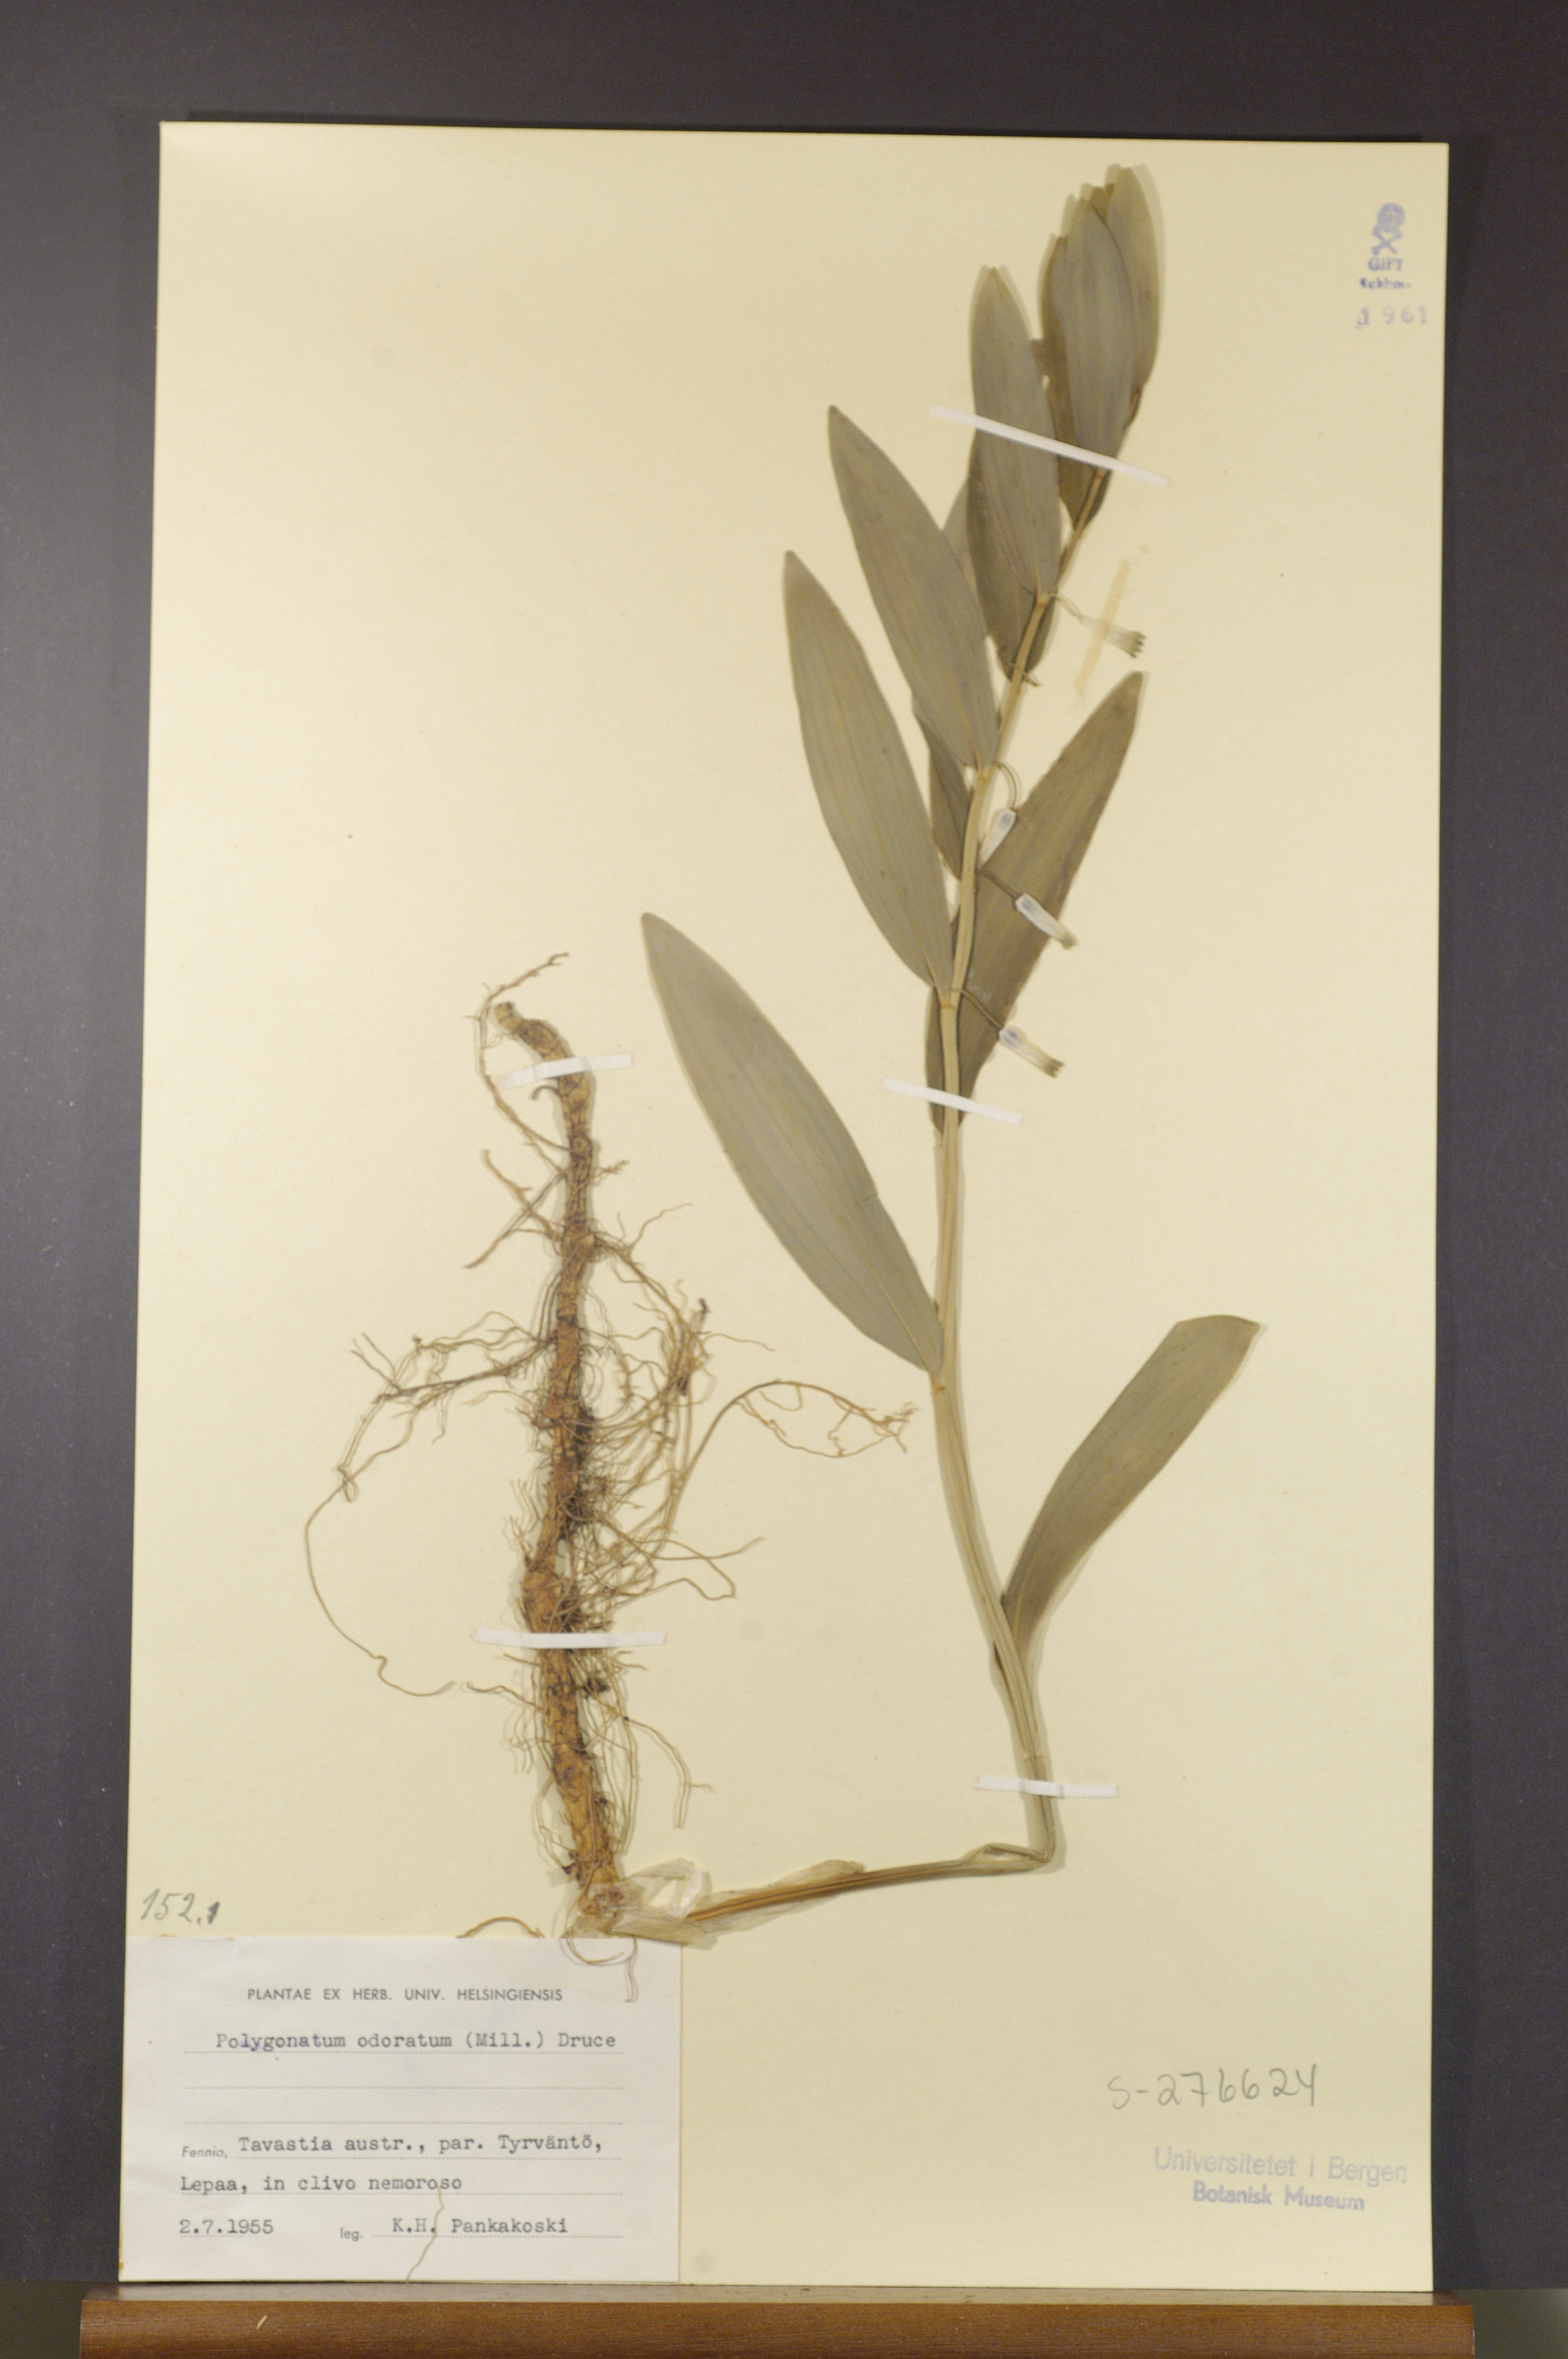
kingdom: Plantae
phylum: Tracheophyta
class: Liliopsida
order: Asparagales
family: Asparagaceae
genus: Polygonatum
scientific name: Polygonatum odoratum
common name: Angular solomon's-seal
